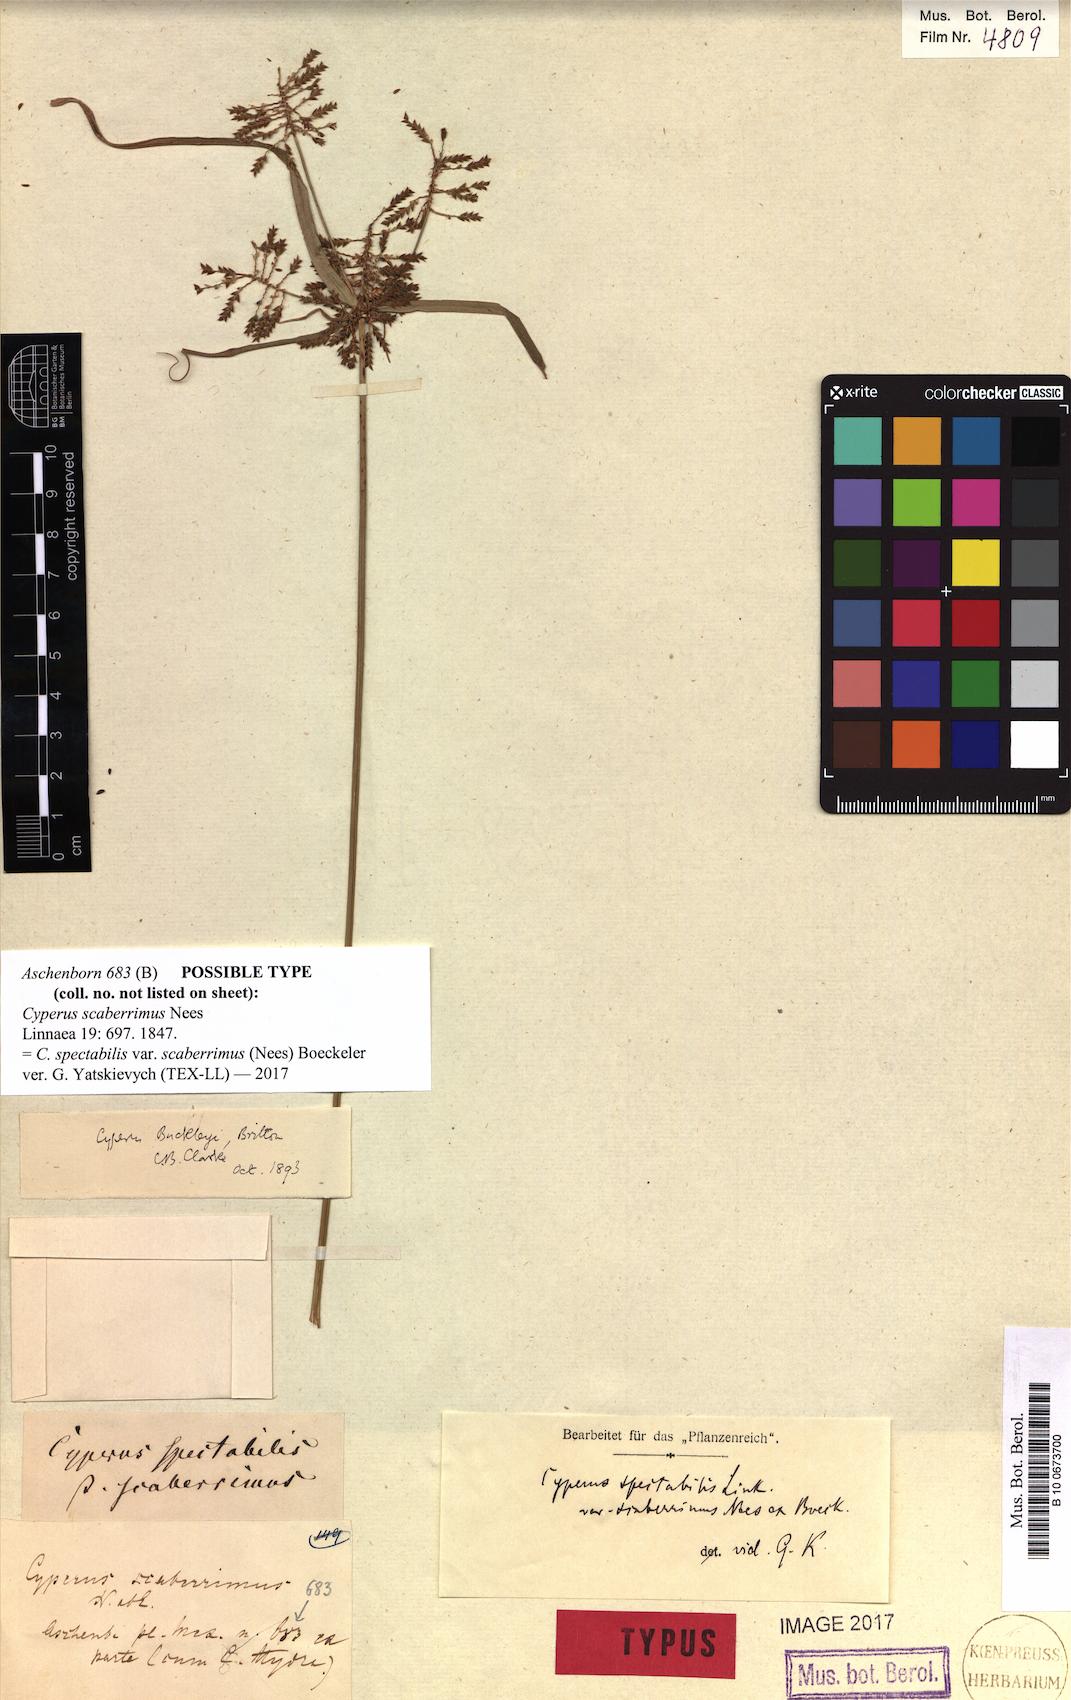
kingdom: Plantae
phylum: Tracheophyta
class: Liliopsida
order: Poales
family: Cyperaceae
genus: Cyperus
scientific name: Cyperus spectabilis
